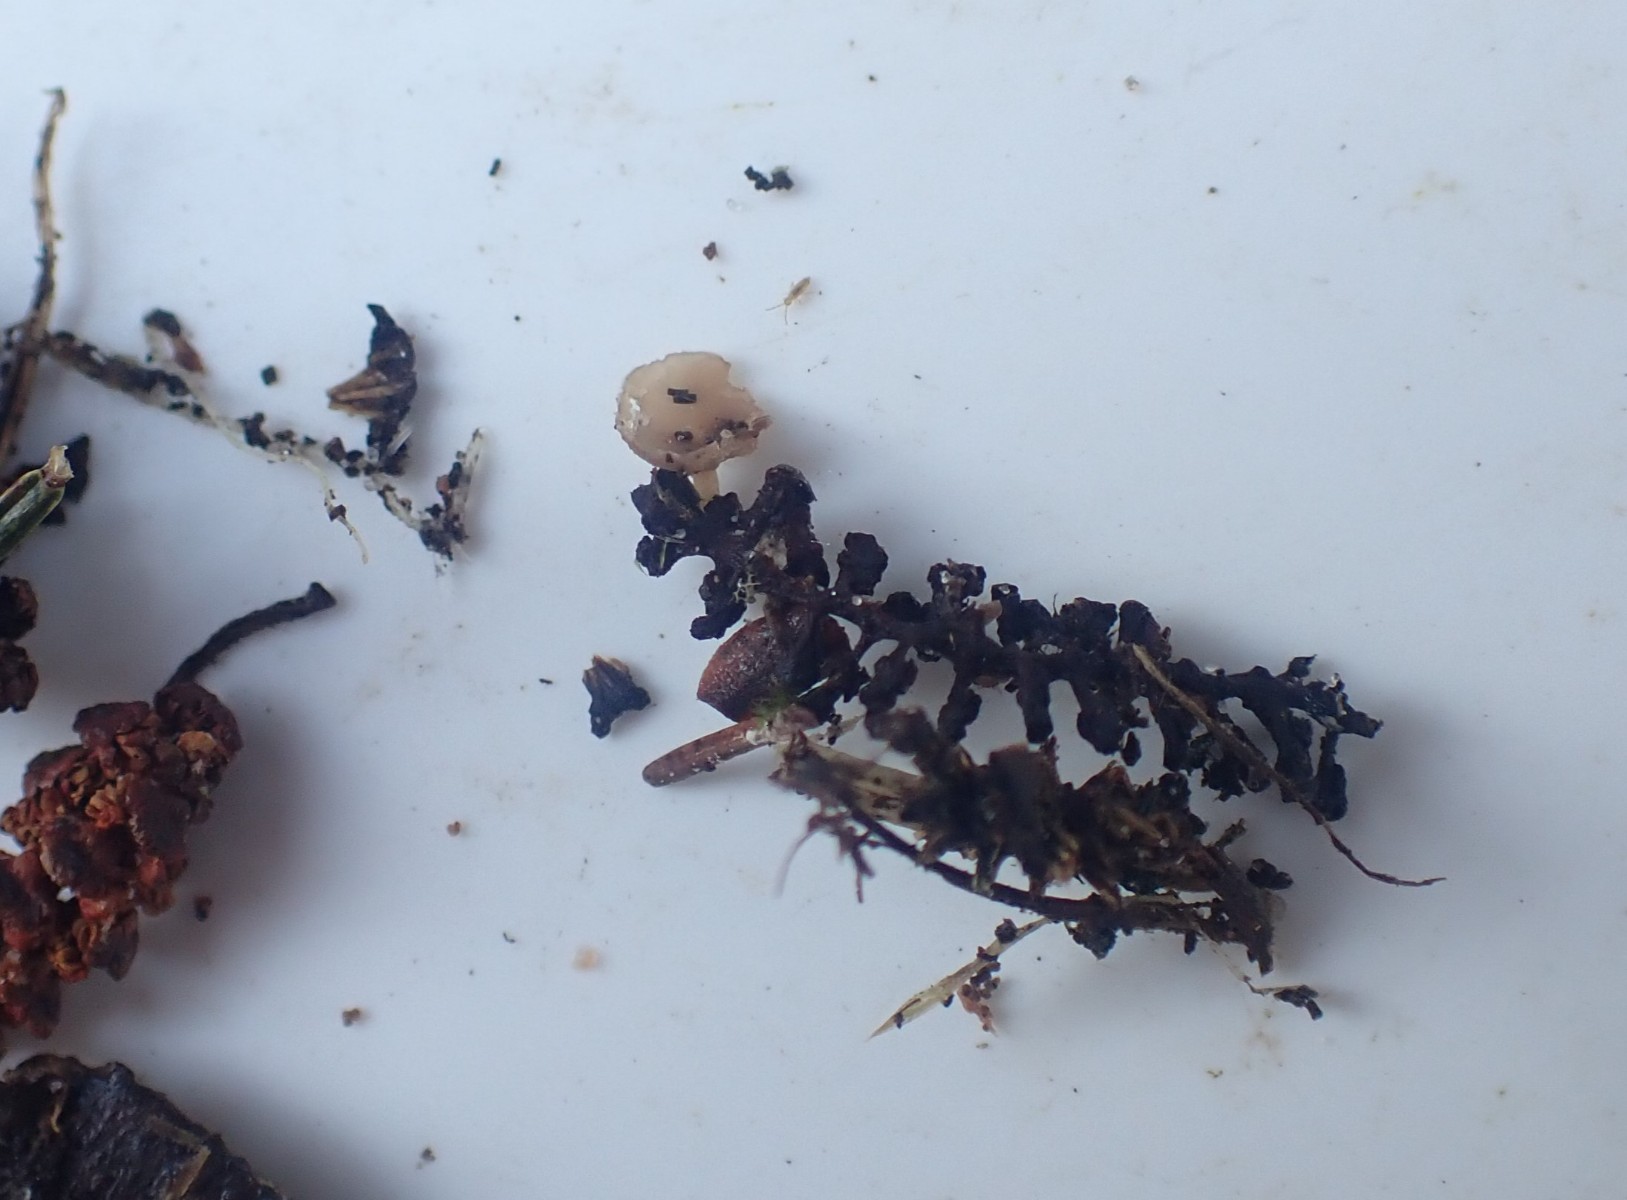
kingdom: Fungi
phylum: Ascomycota
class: Leotiomycetes
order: Helotiales
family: Sclerotiniaceae
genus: Ciboria
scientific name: Ciboria amentacea
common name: ellerakle-knoldskive
